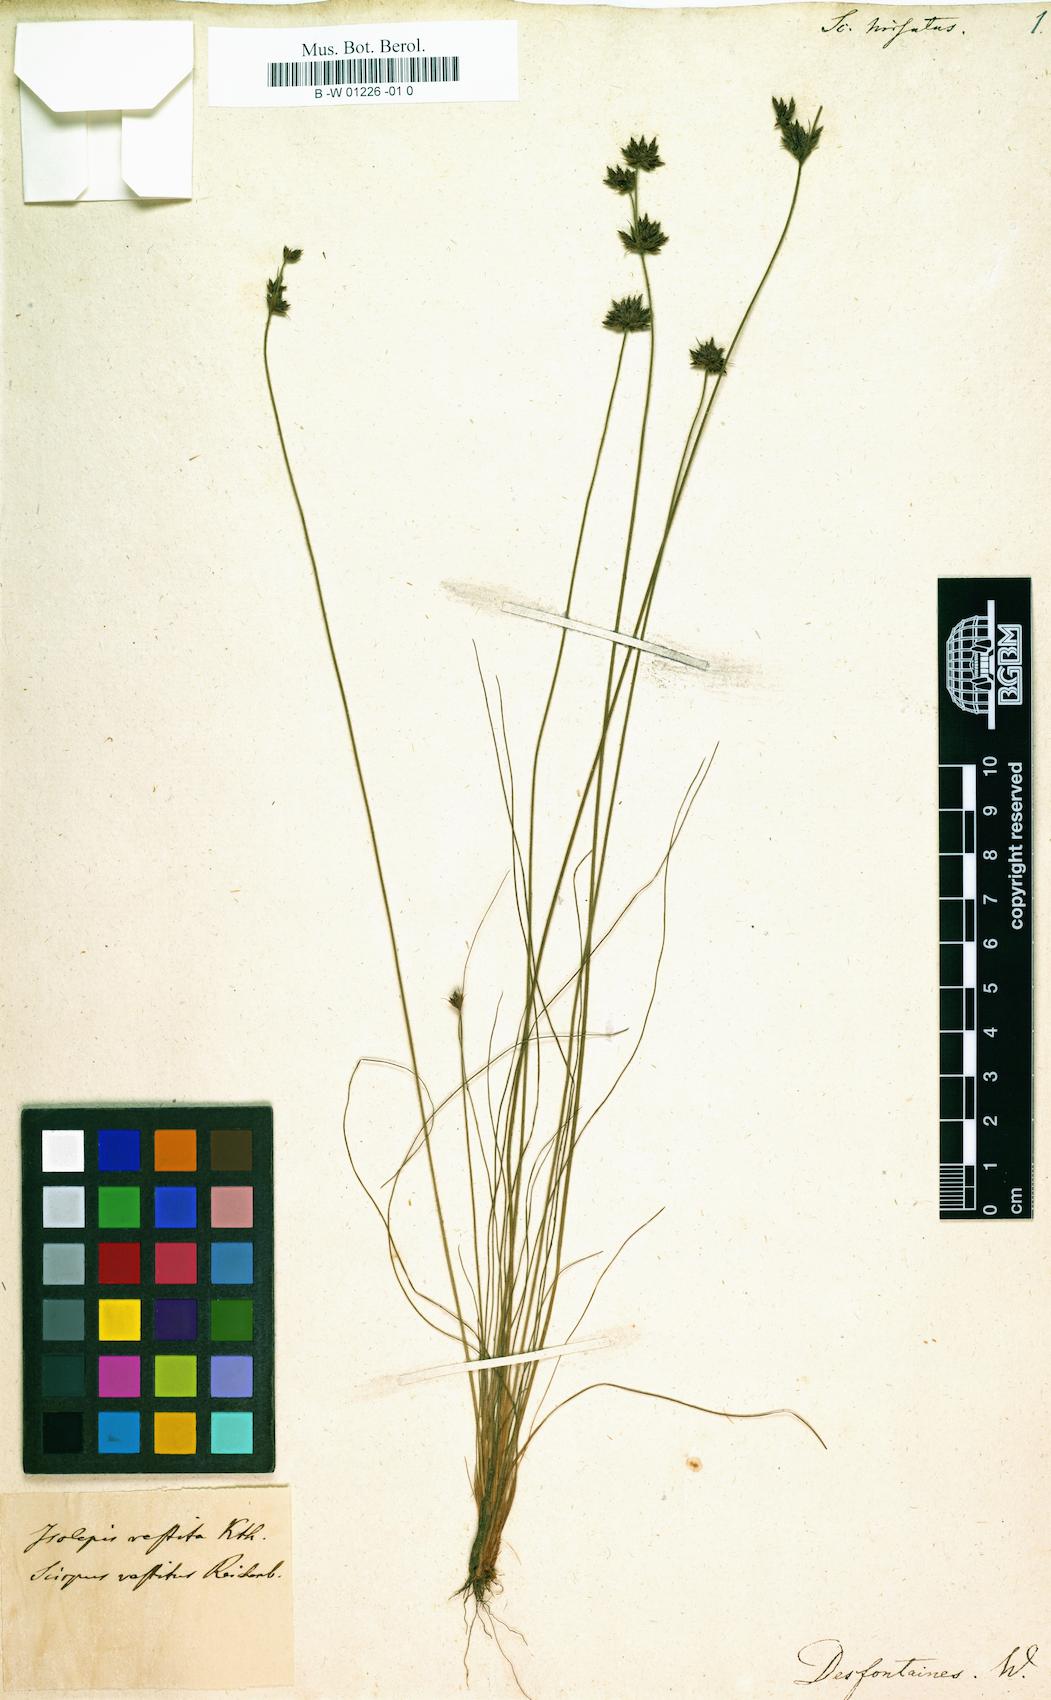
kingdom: Plantae
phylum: Tracheophyta
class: Liliopsida
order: Poales
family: Cyperaceae
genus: Bulbostylis
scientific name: Bulbostylis vestita
